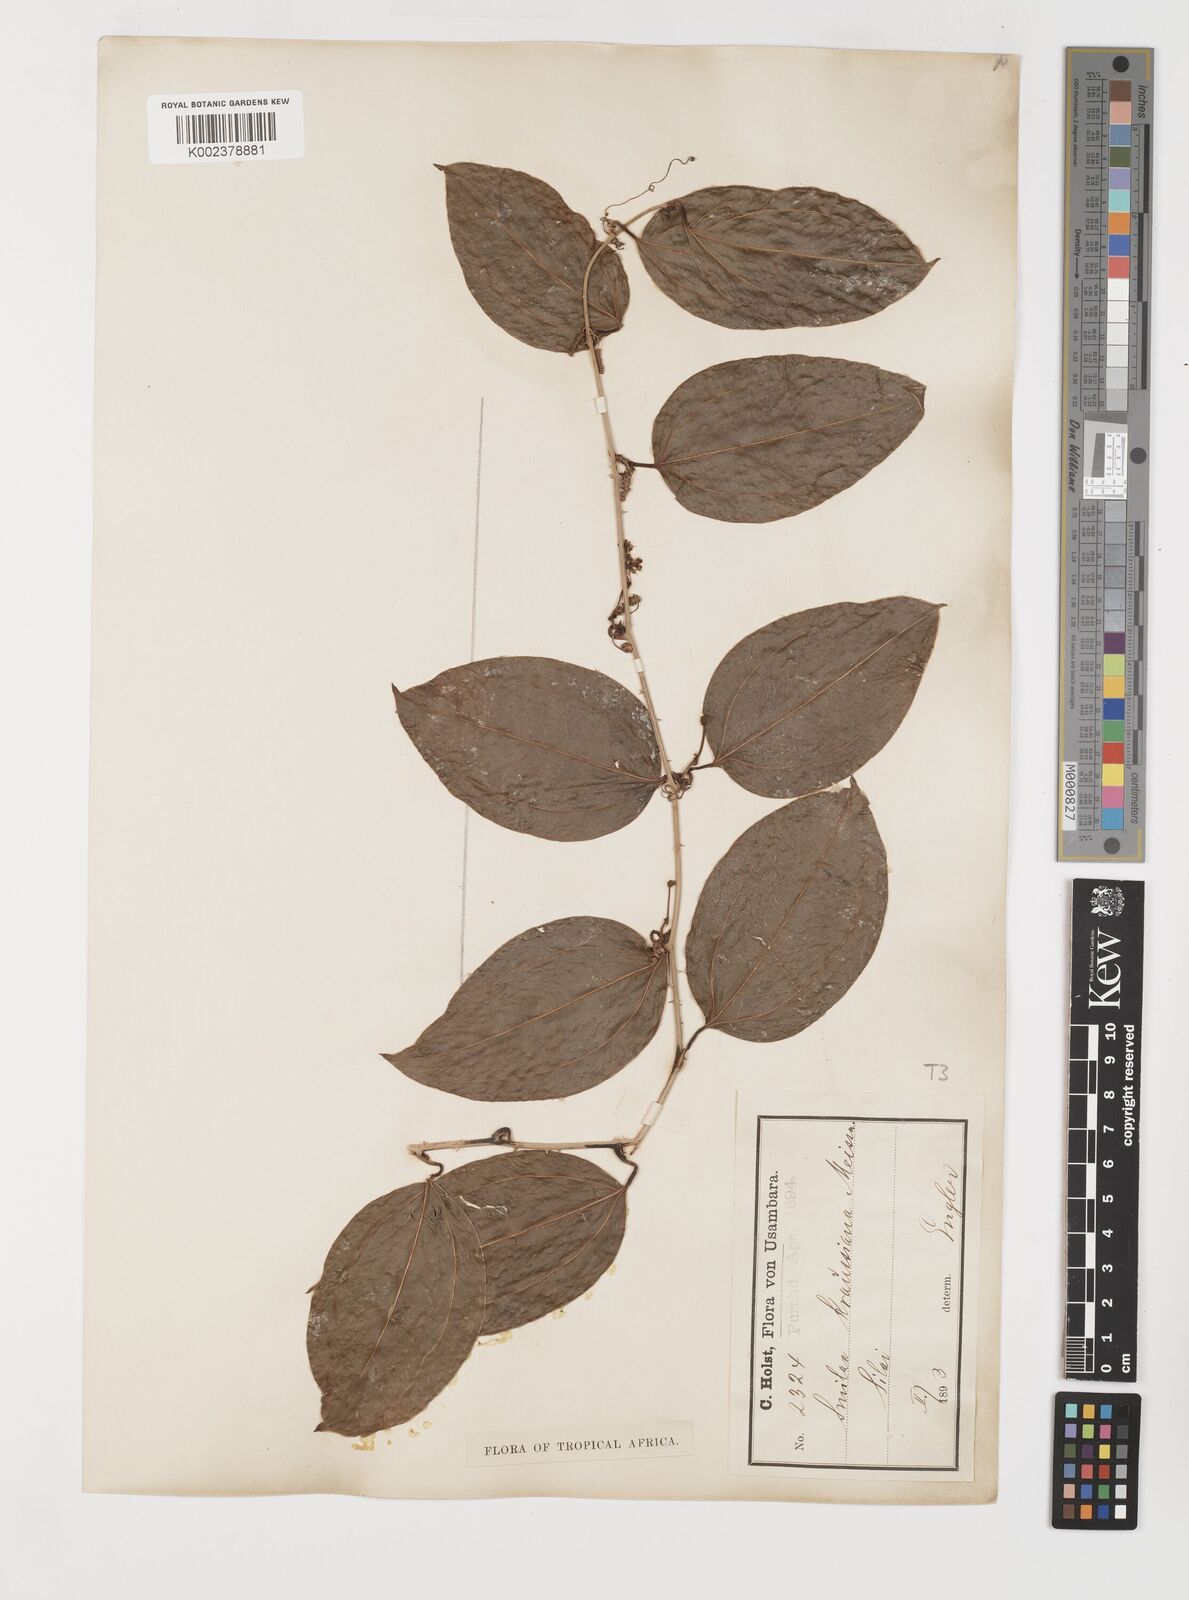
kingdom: Plantae
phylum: Tracheophyta
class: Liliopsida
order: Liliales
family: Smilacaceae
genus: Smilax
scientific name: Smilax anceps
